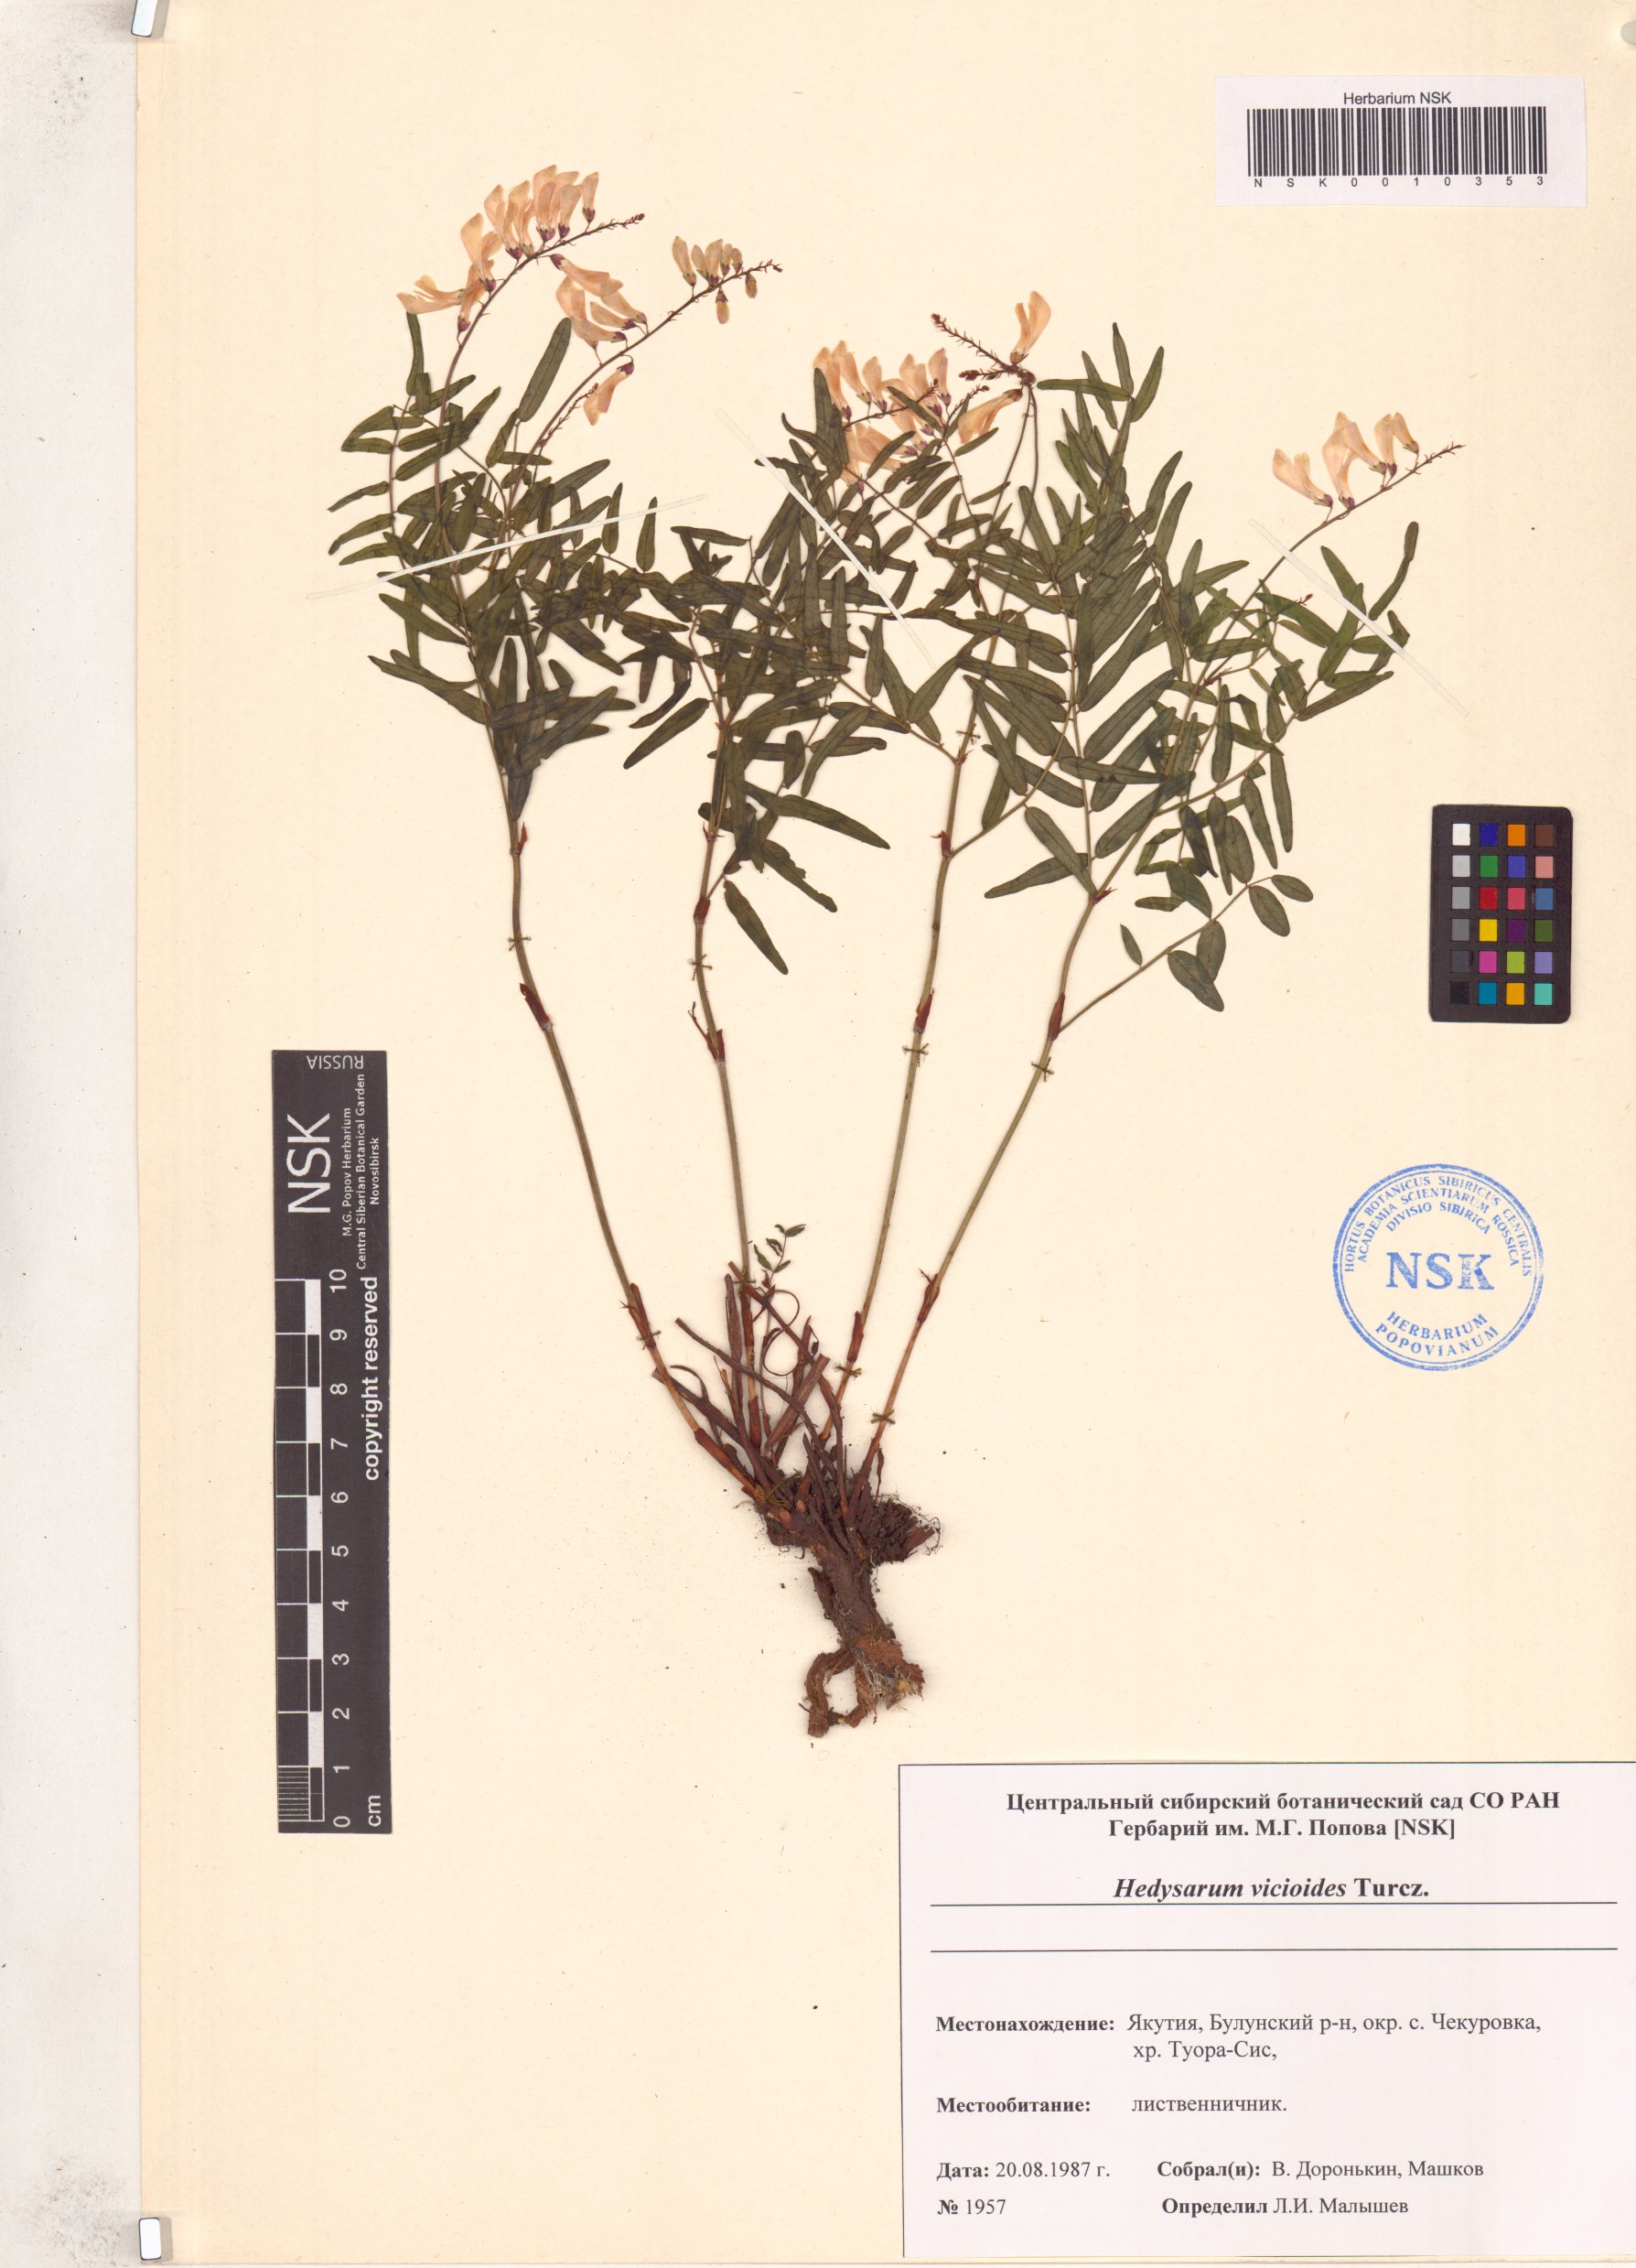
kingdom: Plantae
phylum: Tracheophyta
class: Magnoliopsida
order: Fabales
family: Fabaceae
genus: Hedysarum
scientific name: Hedysarum vicioides
